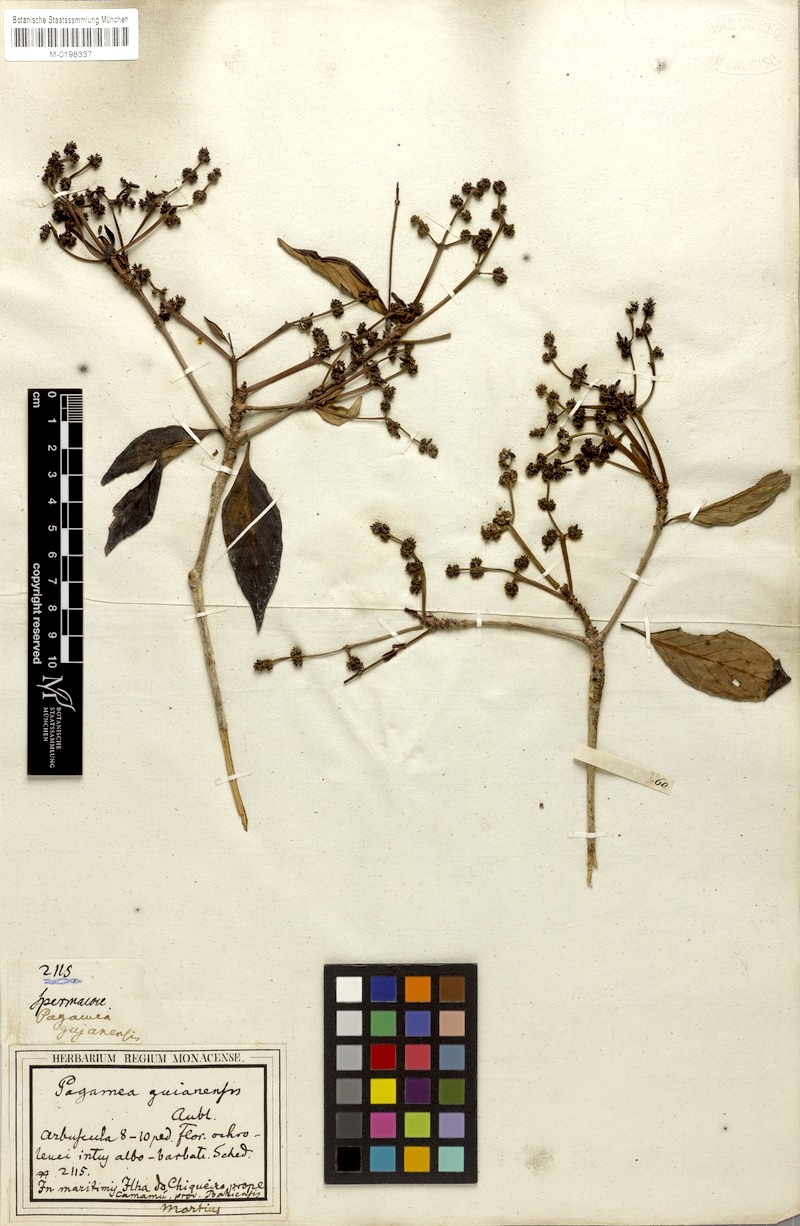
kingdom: Plantae
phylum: Tracheophyta
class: Magnoliopsida
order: Gentianales
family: Rubiaceae
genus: Pagamea
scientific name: Pagamea guianensis
